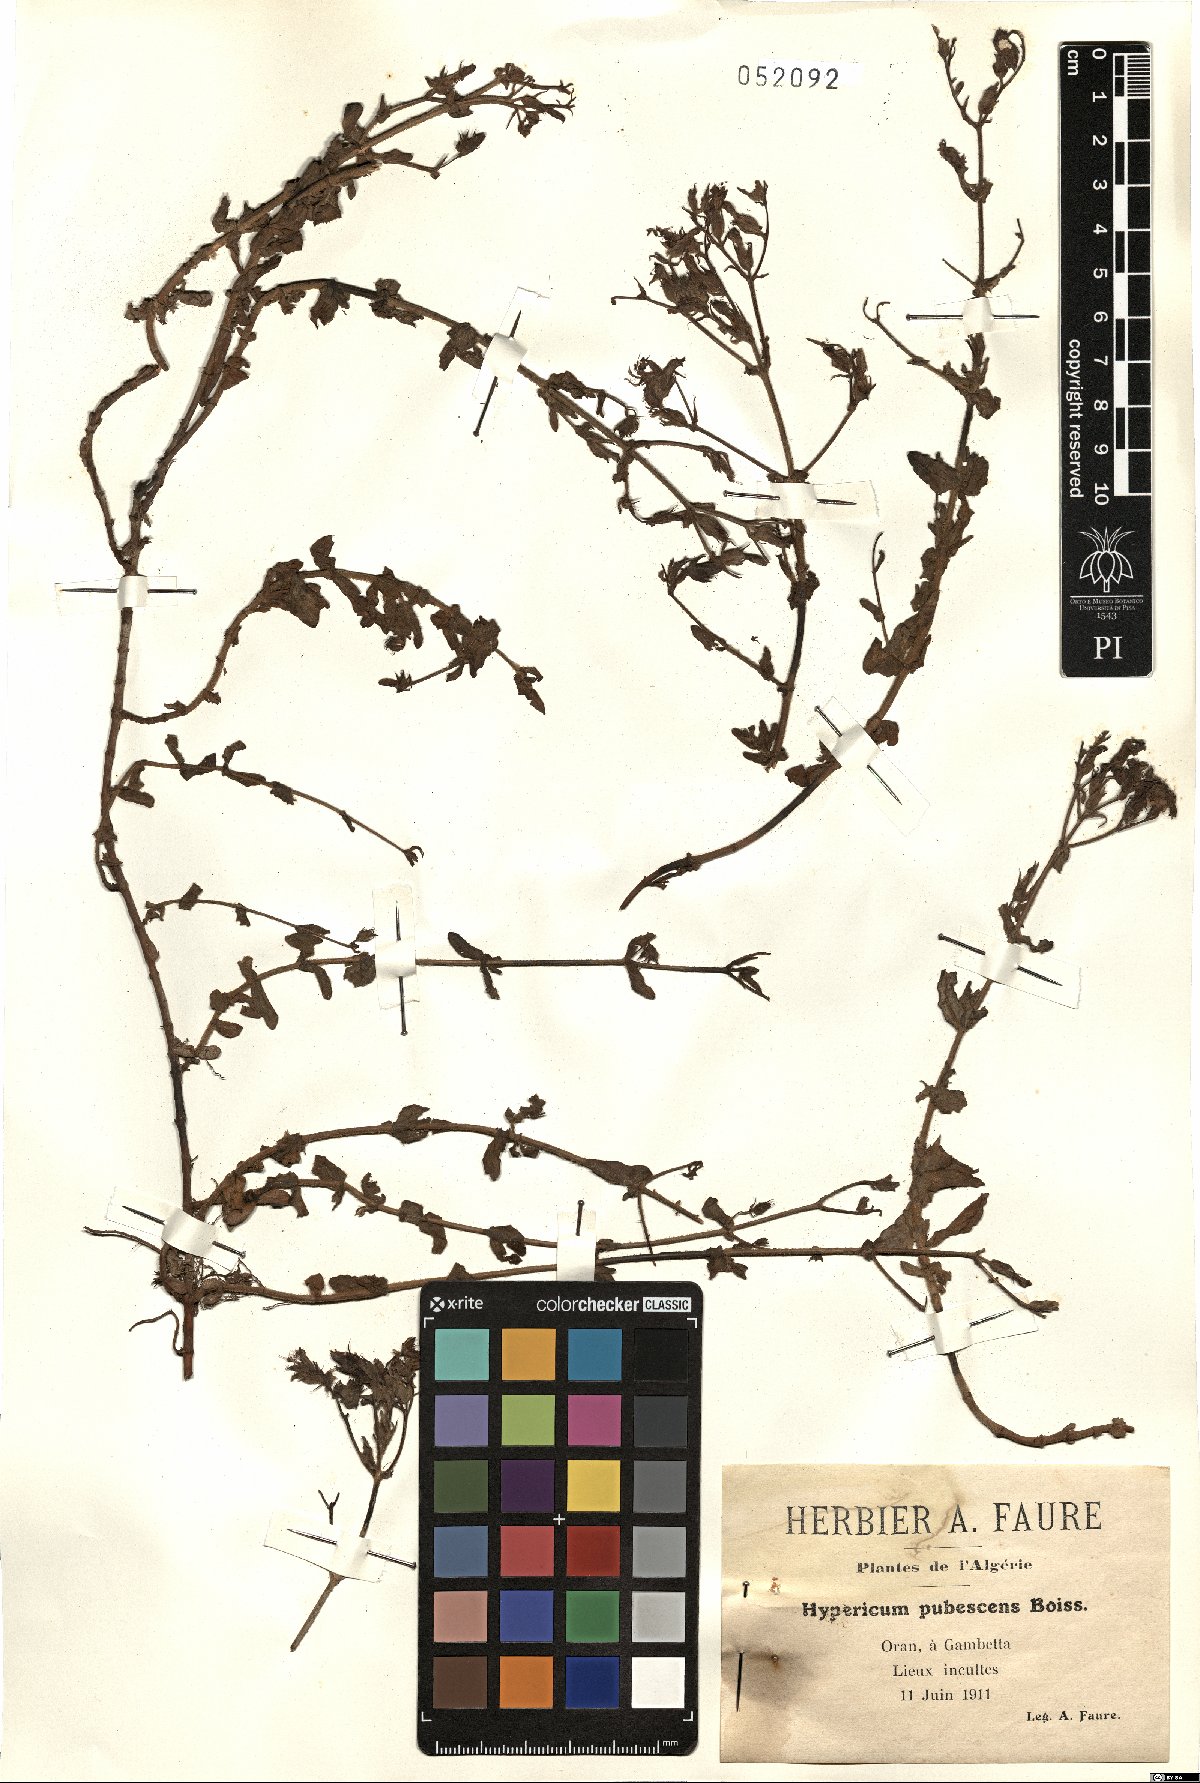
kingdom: Plantae
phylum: Tracheophyta
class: Magnoliopsida
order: Malpighiales
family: Hypericaceae
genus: Hypericum
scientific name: Hypericum pubescens
